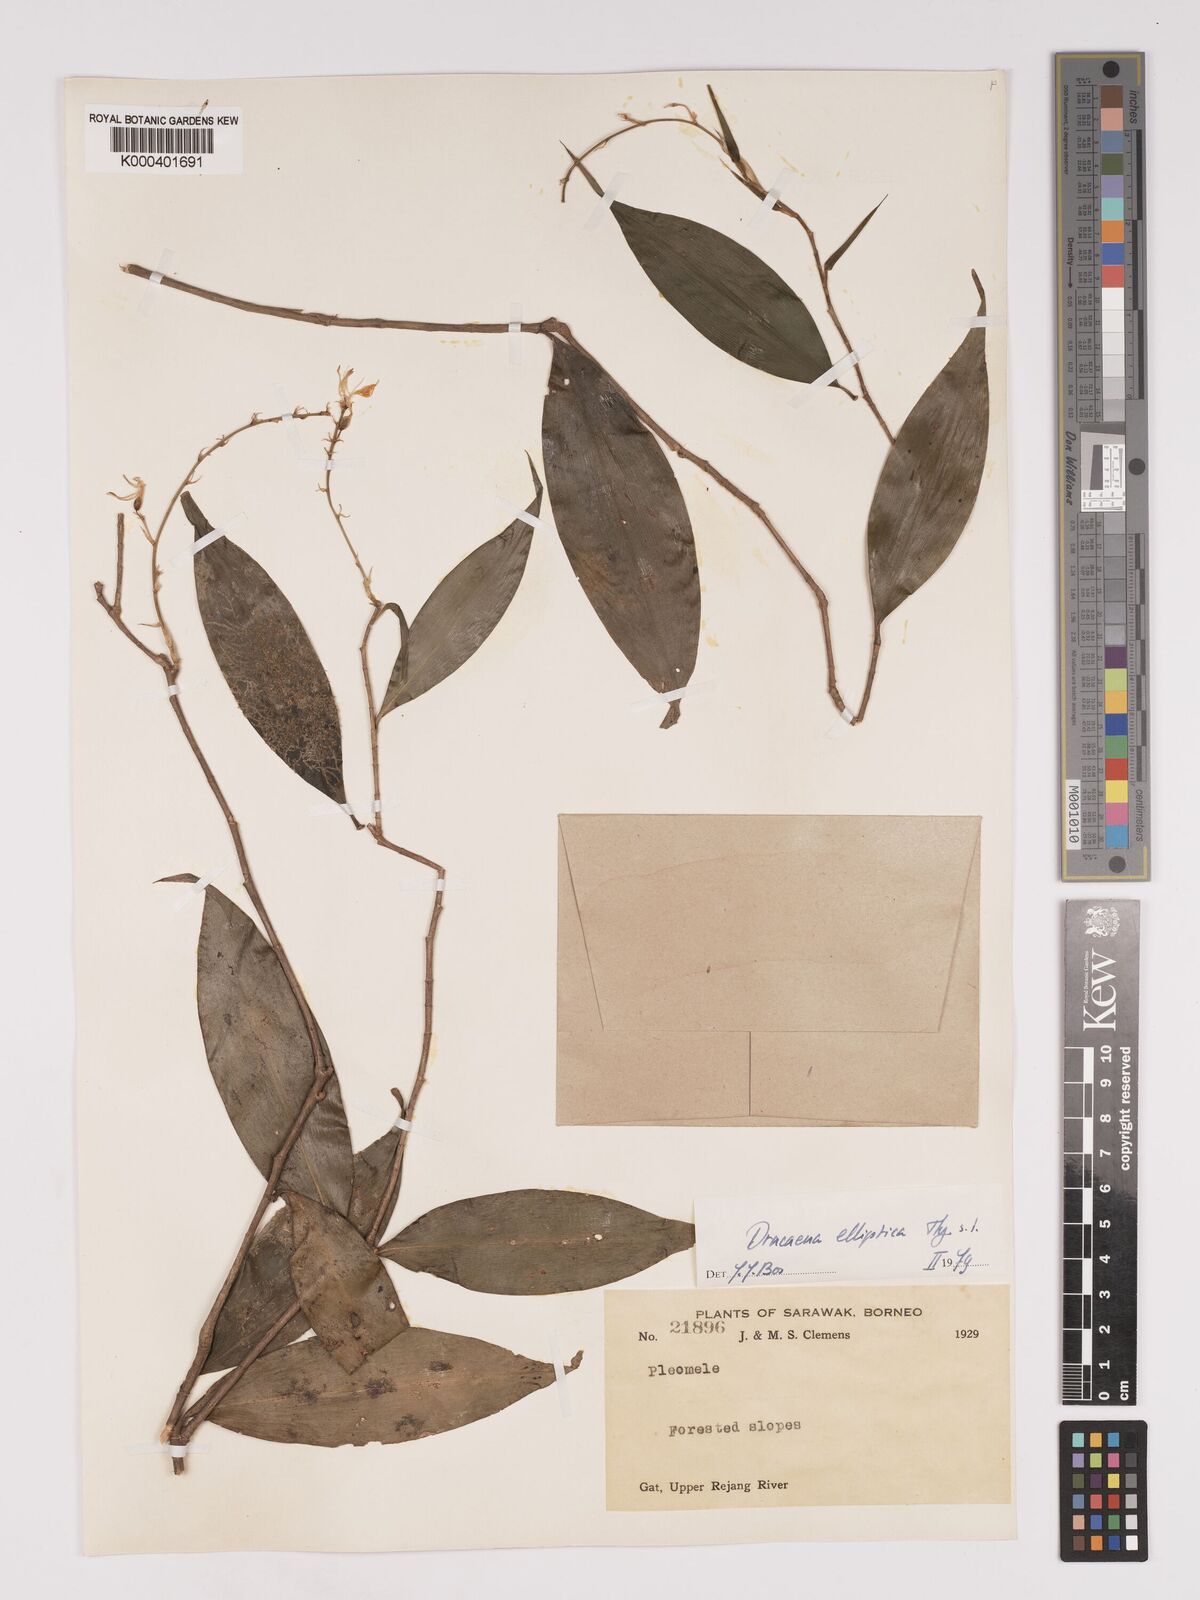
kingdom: Plantae
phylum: Tracheophyta
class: Liliopsida
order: Asparagales
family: Asparagaceae
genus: Dracaena
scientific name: Dracaena elliptica
